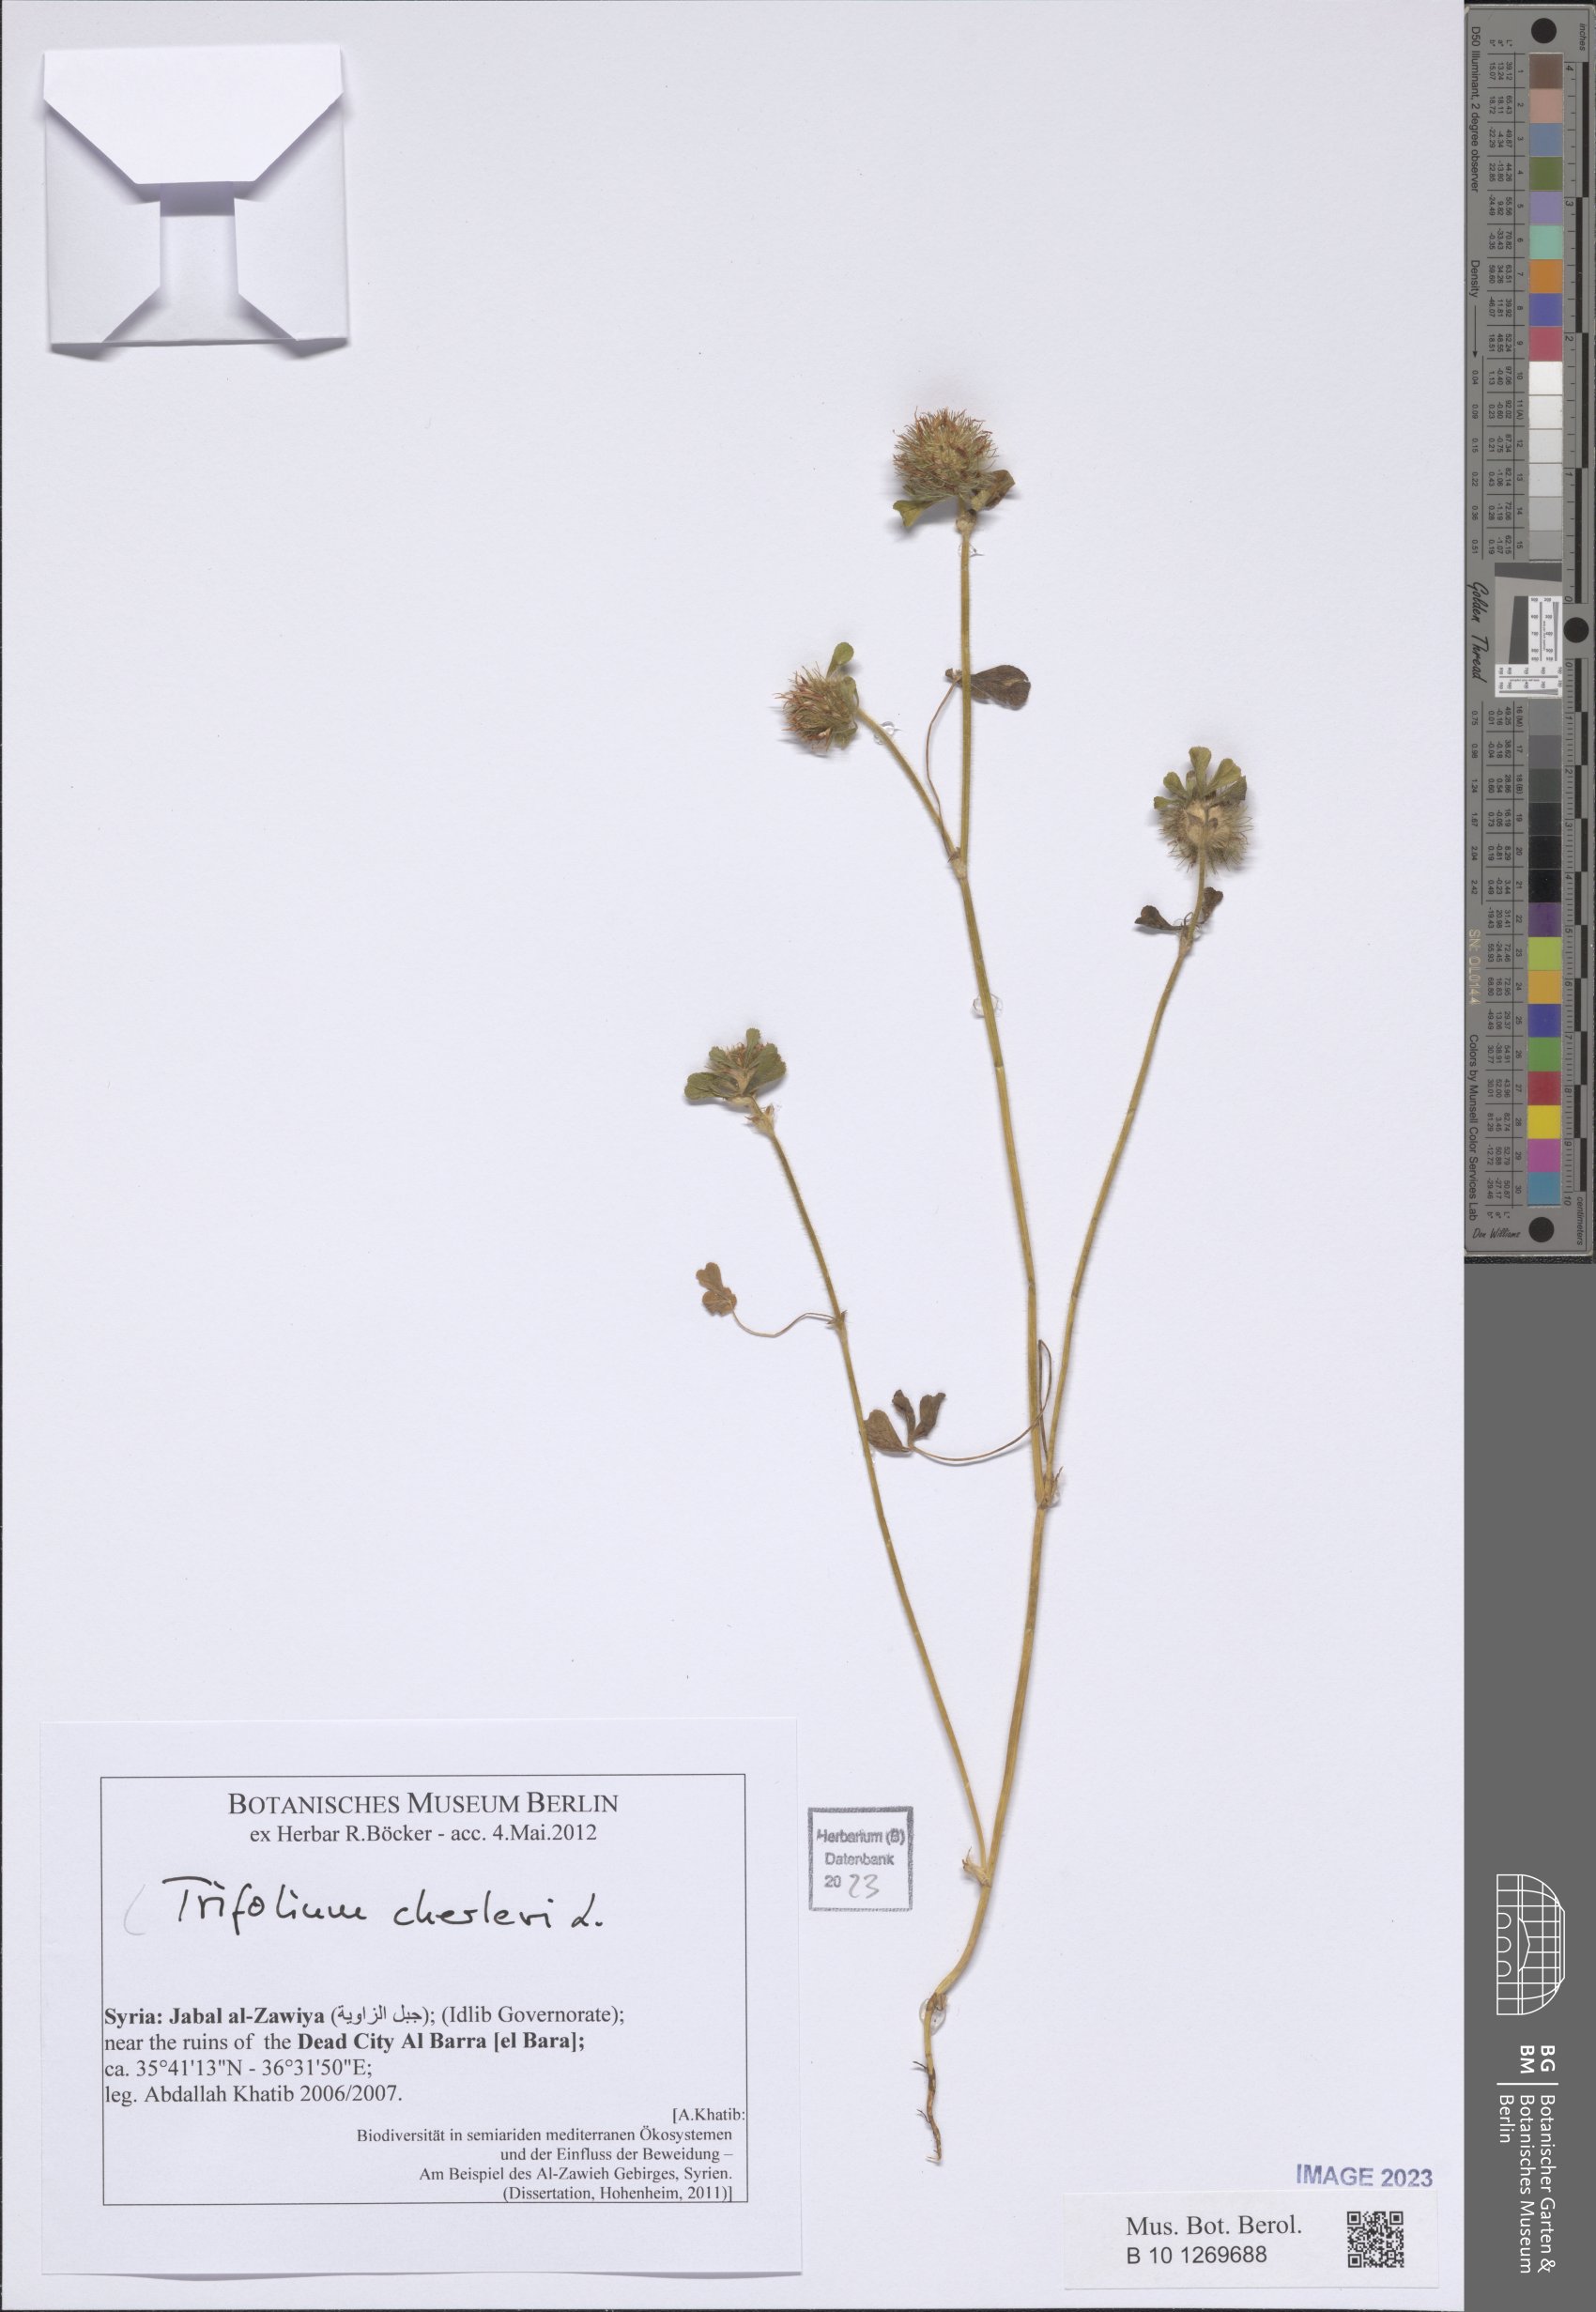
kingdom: Plantae
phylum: Tracheophyta
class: Magnoliopsida
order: Fabales
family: Fabaceae
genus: Trifolium
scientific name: Trifolium cherleri
